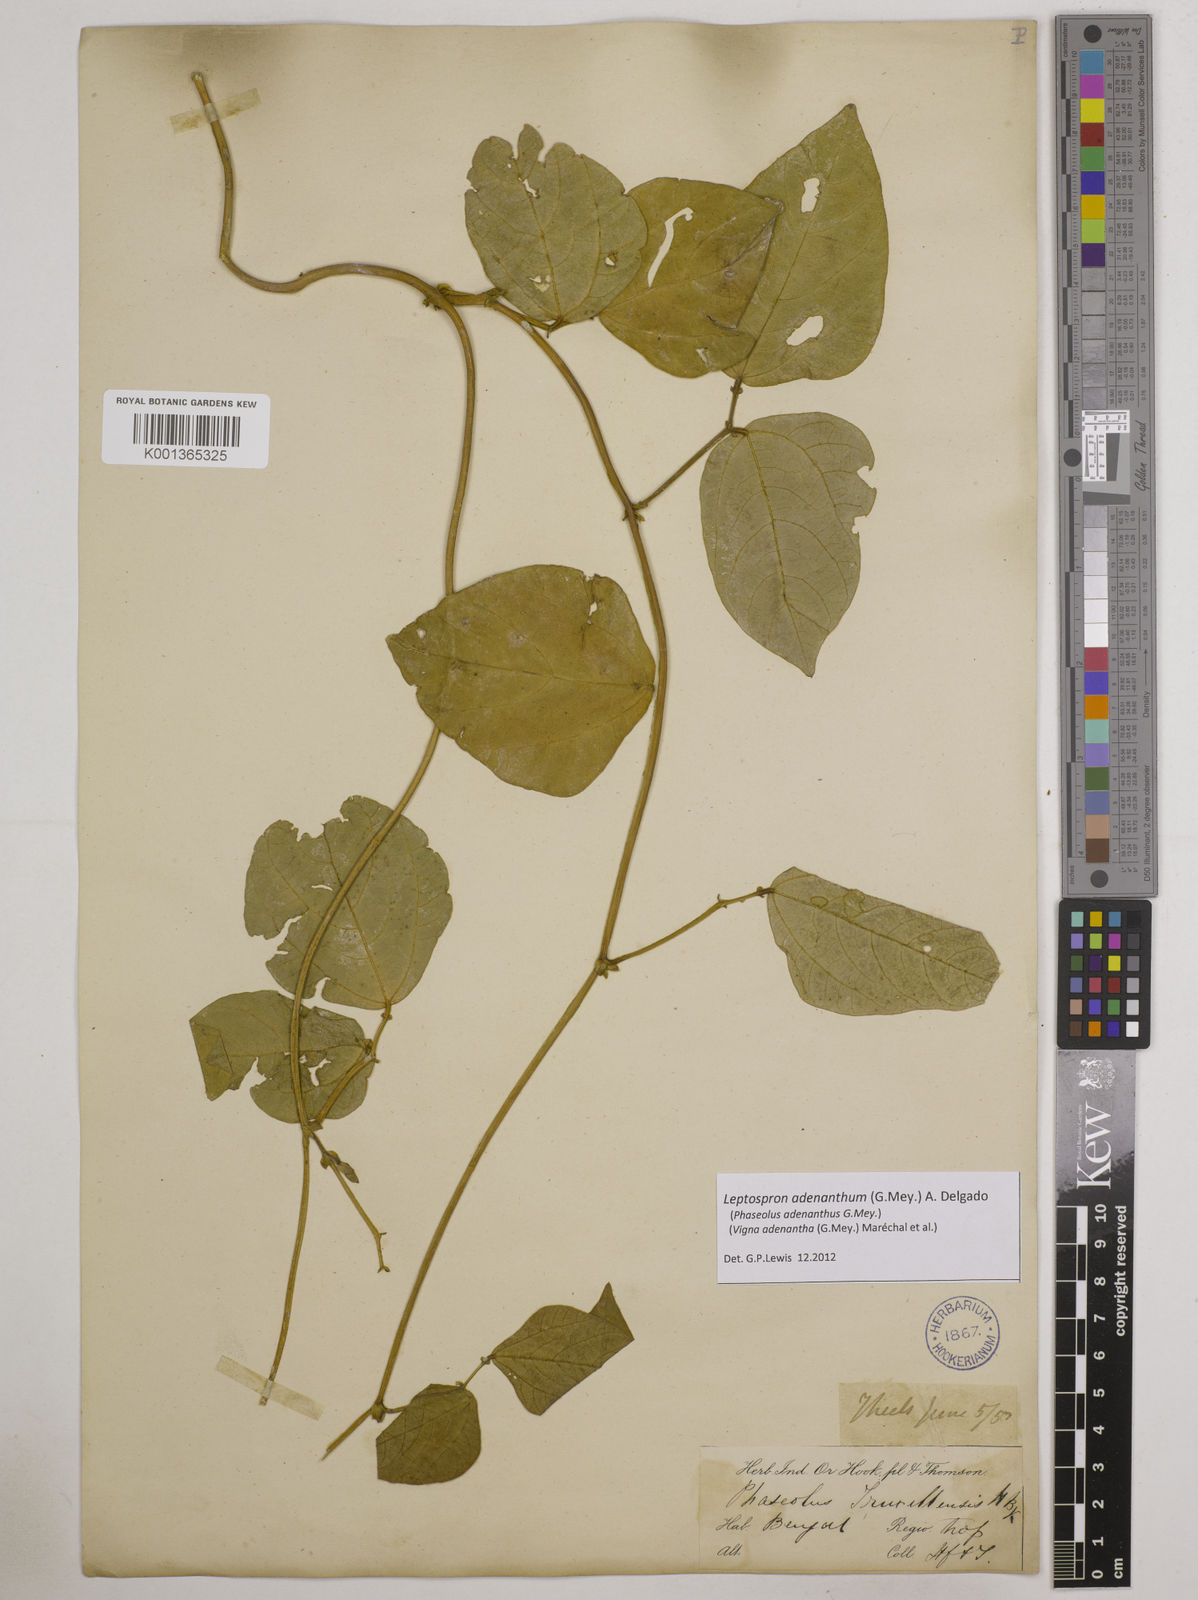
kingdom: Plantae
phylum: Tracheophyta
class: Magnoliopsida
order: Fabales
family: Fabaceae
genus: Leptospron
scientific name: Leptospron adenanthum
